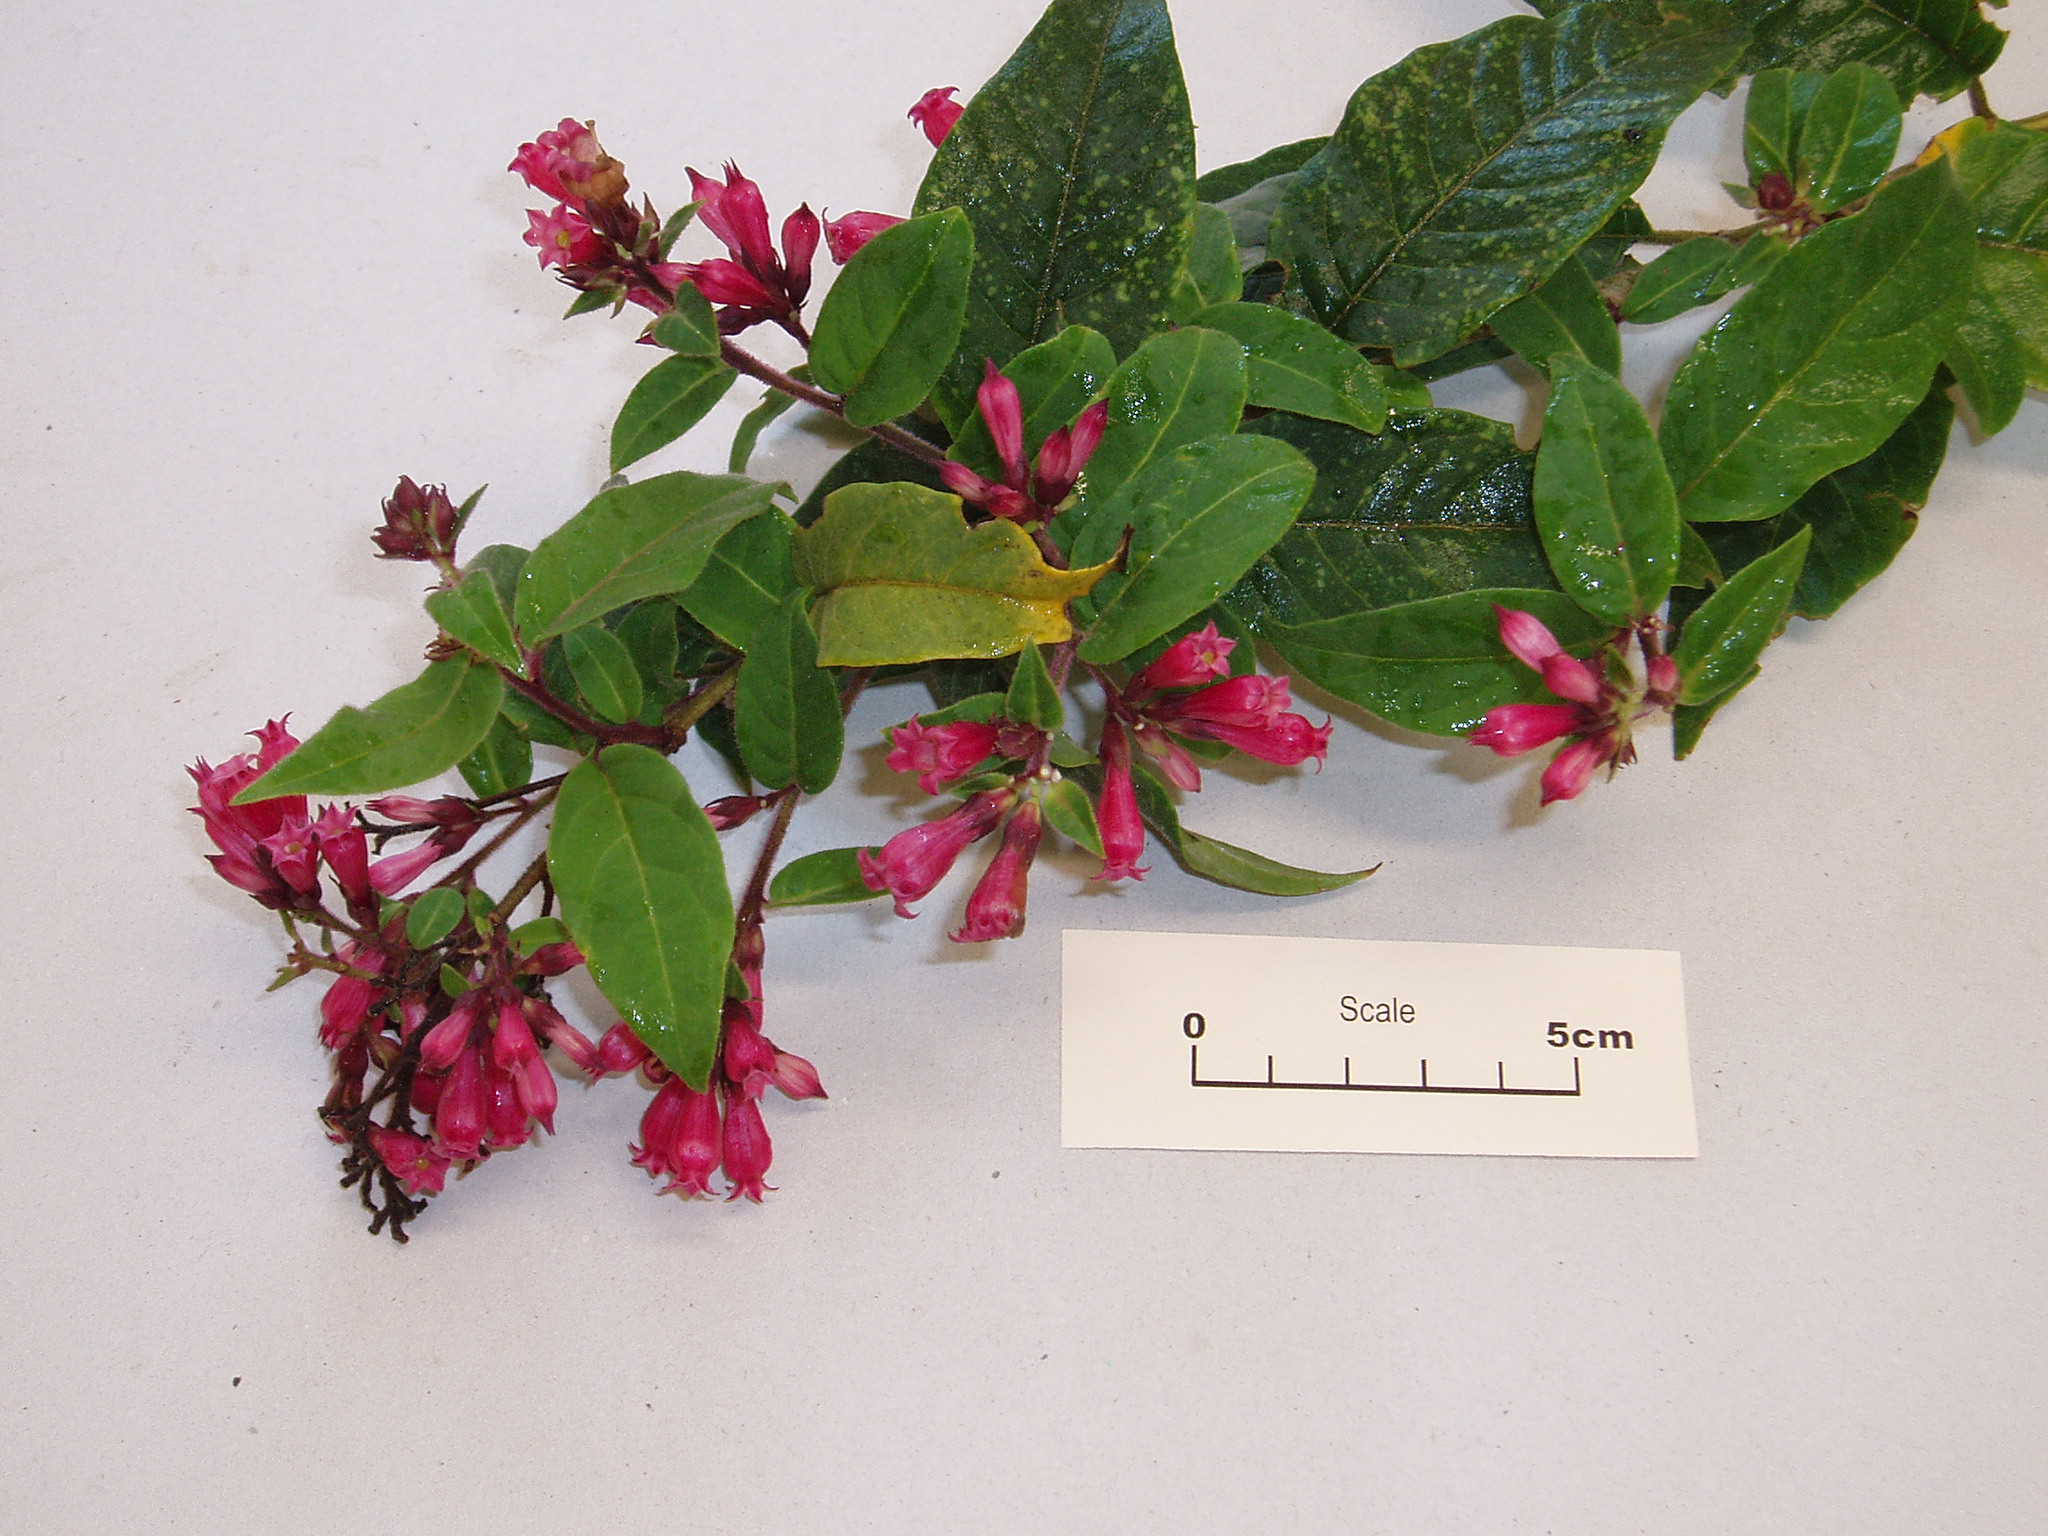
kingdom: Plantae
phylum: Tracheophyta
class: Magnoliopsida
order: Solanales
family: Solanaceae
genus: Cestrum
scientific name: Cestrum elegans
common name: Crimson cestrum
